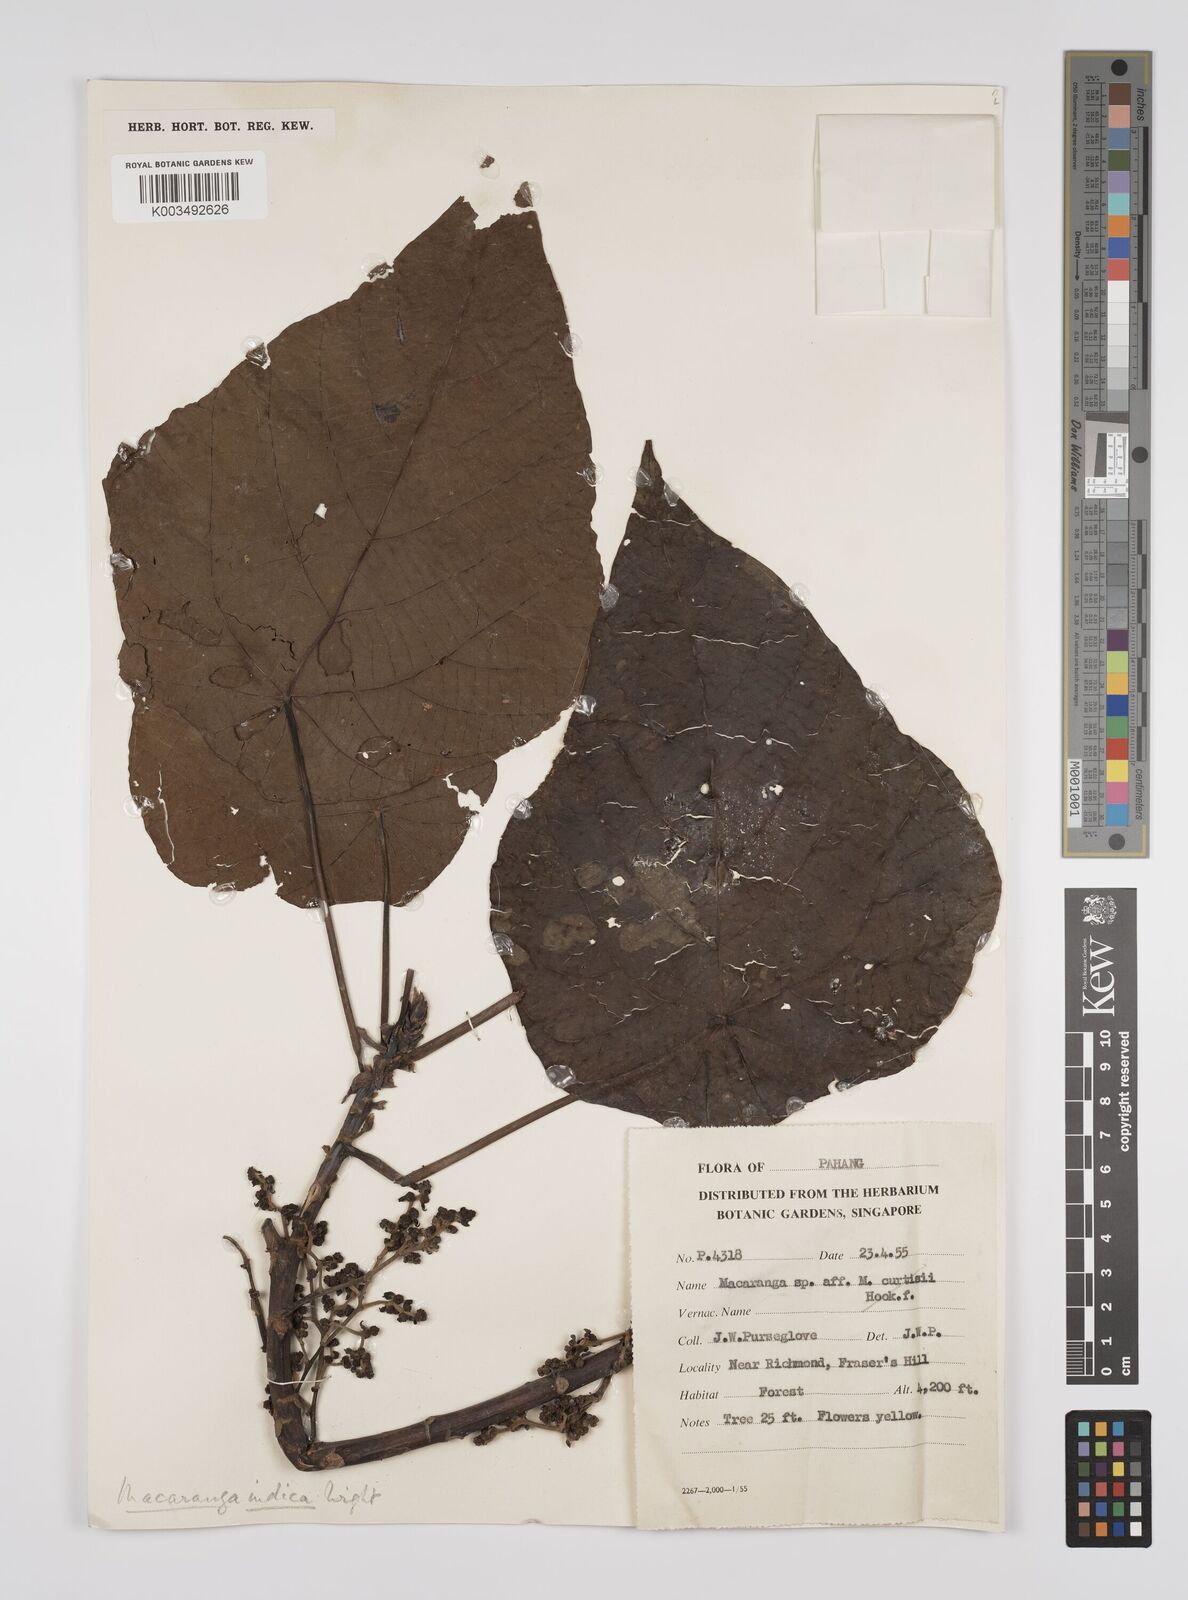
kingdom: Plantae
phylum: Tracheophyta
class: Magnoliopsida
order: Malpighiales
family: Euphorbiaceae
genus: Macaranga
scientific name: Macaranga indica
